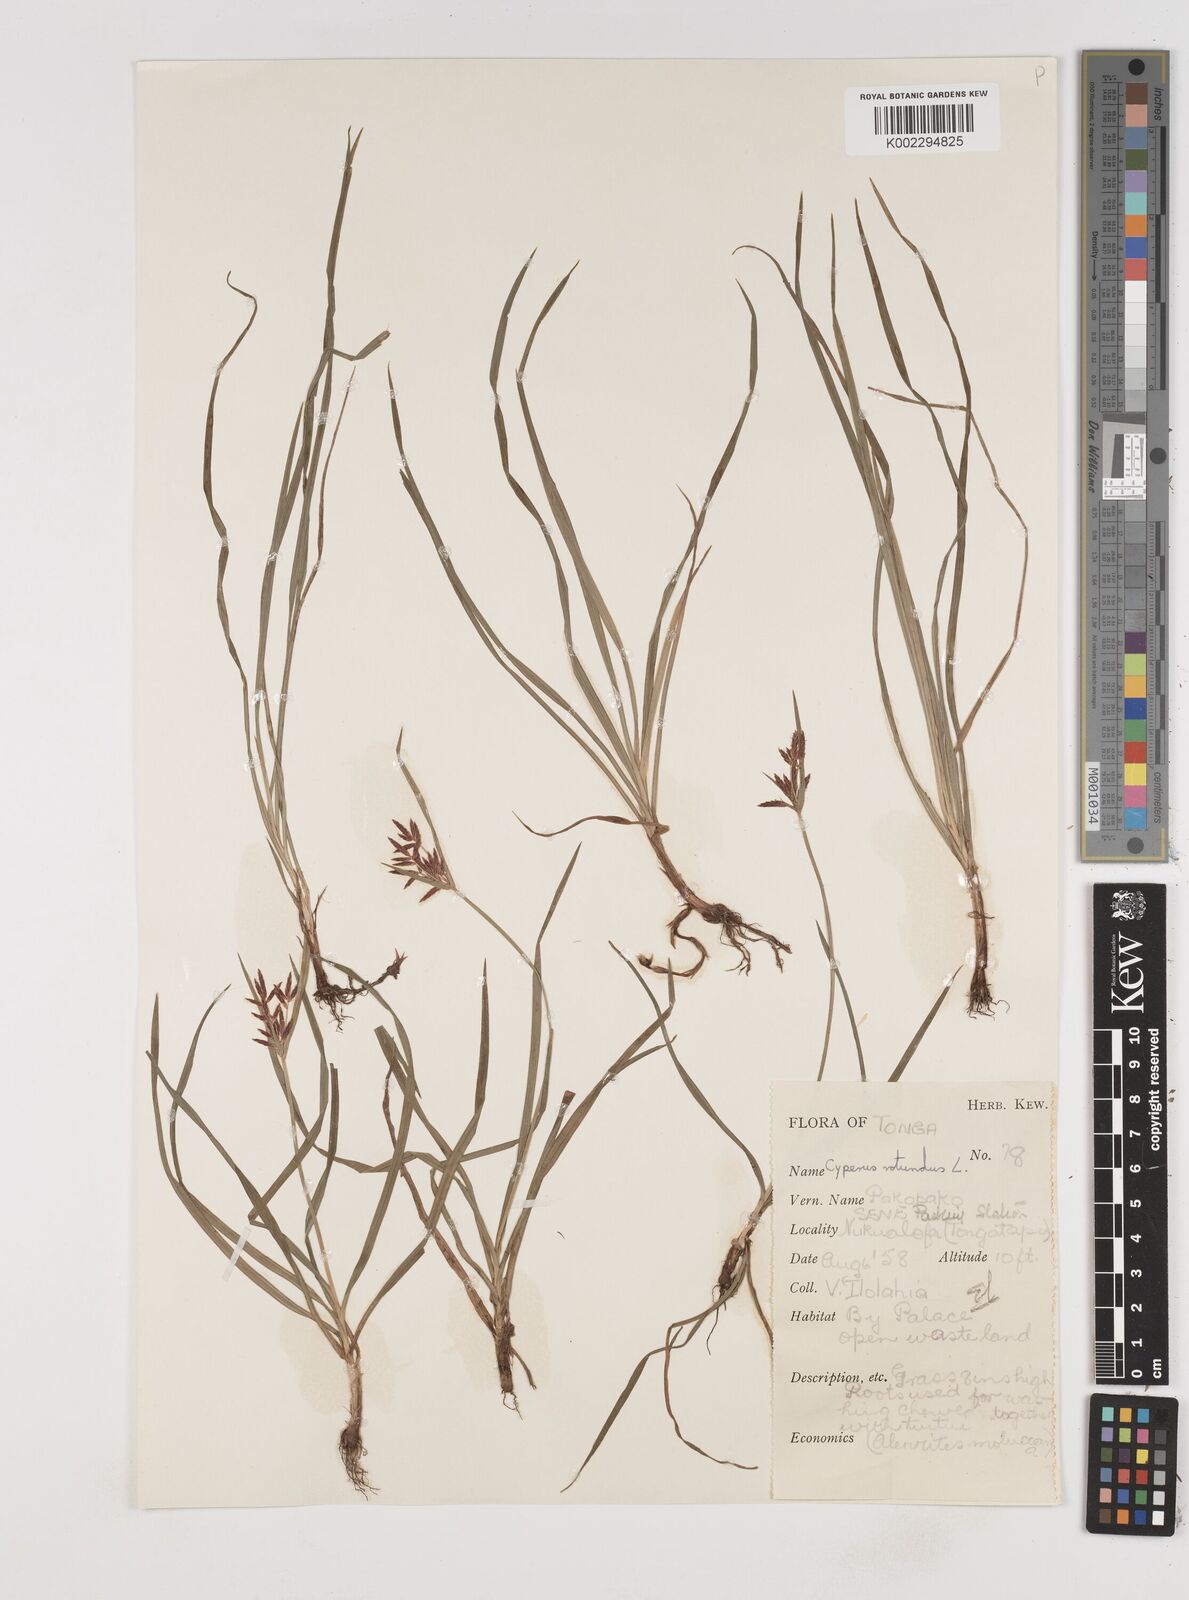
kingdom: Plantae
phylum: Tracheophyta
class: Liliopsida
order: Poales
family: Cyperaceae
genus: Cyperus
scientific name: Cyperus rotundus
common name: Nutgrass
